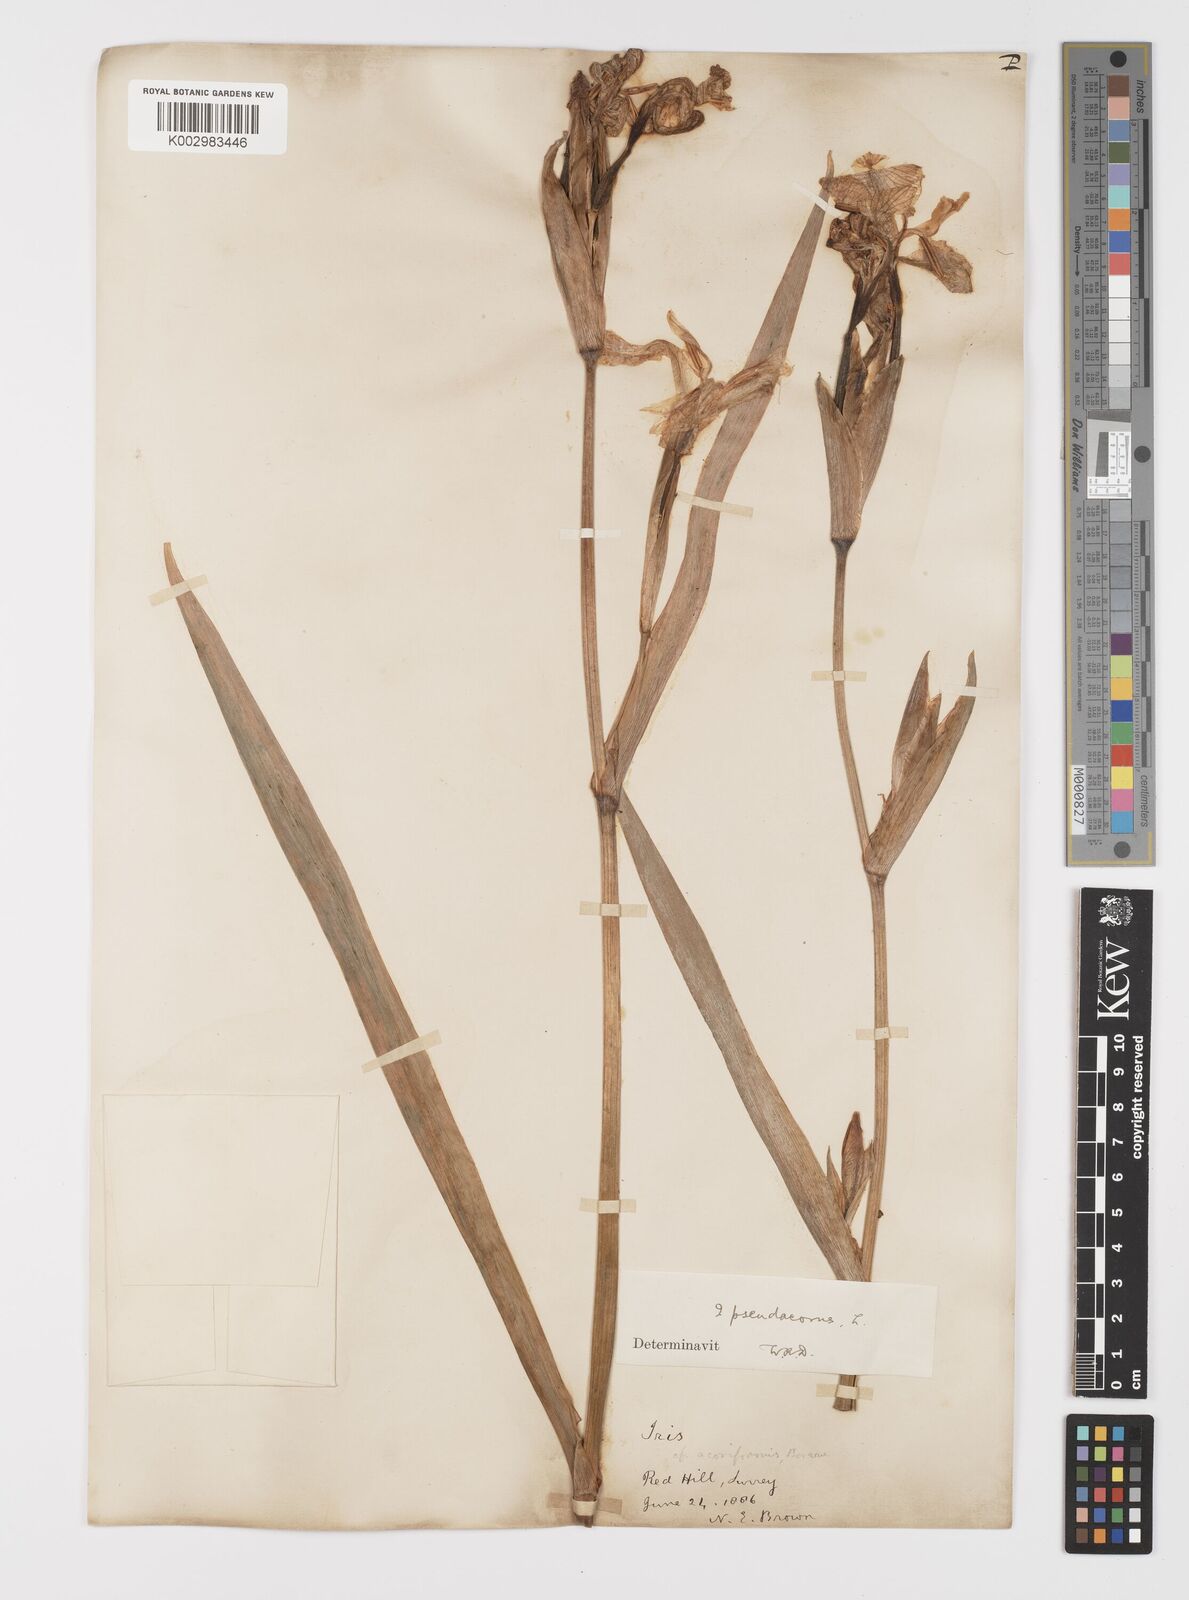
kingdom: Plantae
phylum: Tracheophyta
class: Liliopsida
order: Asparagales
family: Iridaceae
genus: Iris
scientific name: Iris pseudacorus
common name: Yellow flag
